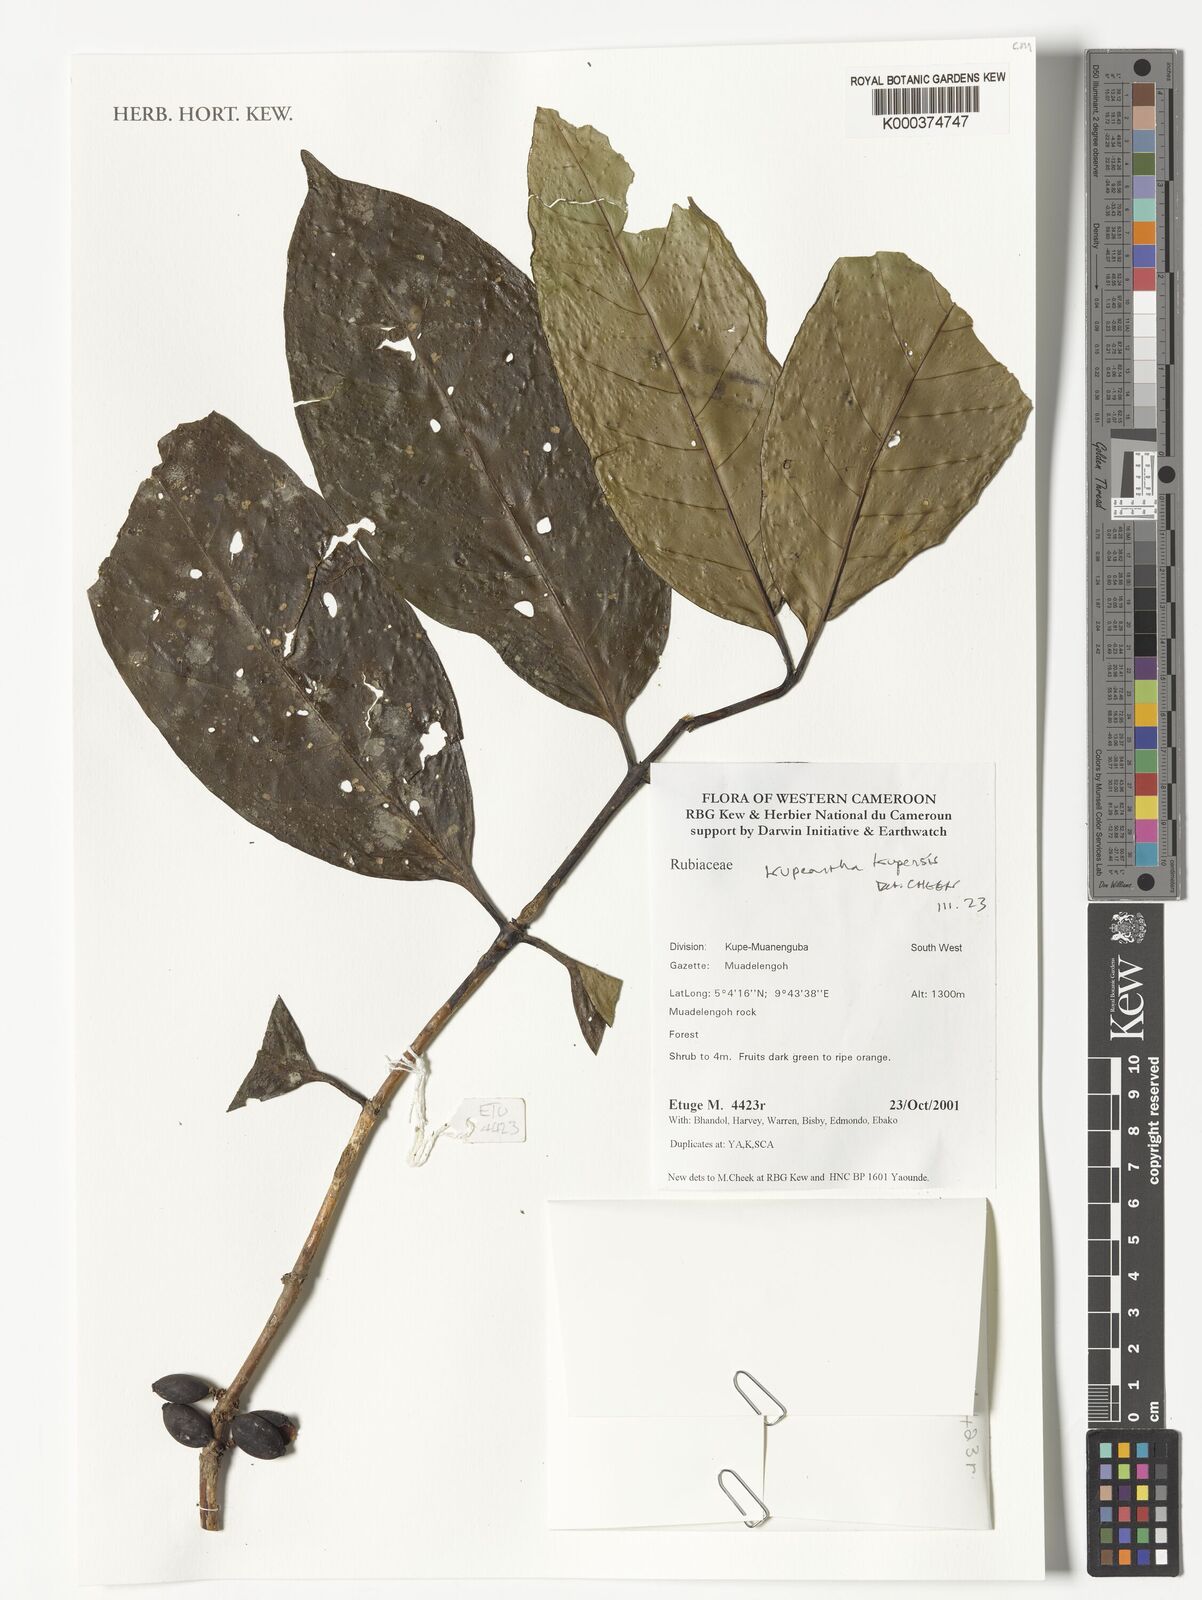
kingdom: Plantae
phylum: Tracheophyta
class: Magnoliopsida
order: Gentianales
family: Rubiaceae
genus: Kupeantha
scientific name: Kupeantha kupensis
